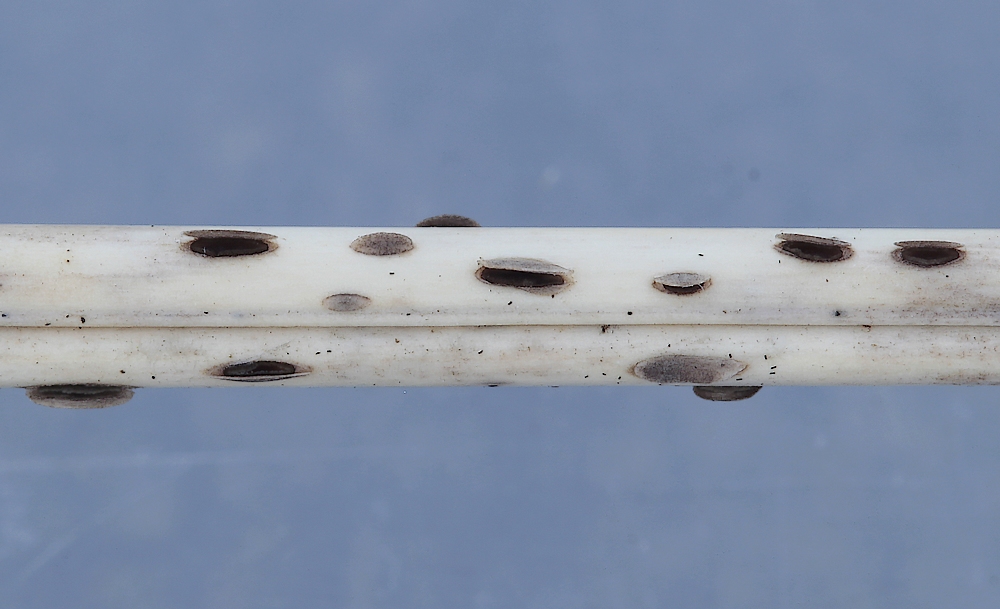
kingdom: Fungi
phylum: Ascomycota
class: Leotiomycetes
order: Helotiales
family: Dermateaceae
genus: Hysterostegiella
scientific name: Hysterostegiella valvata
